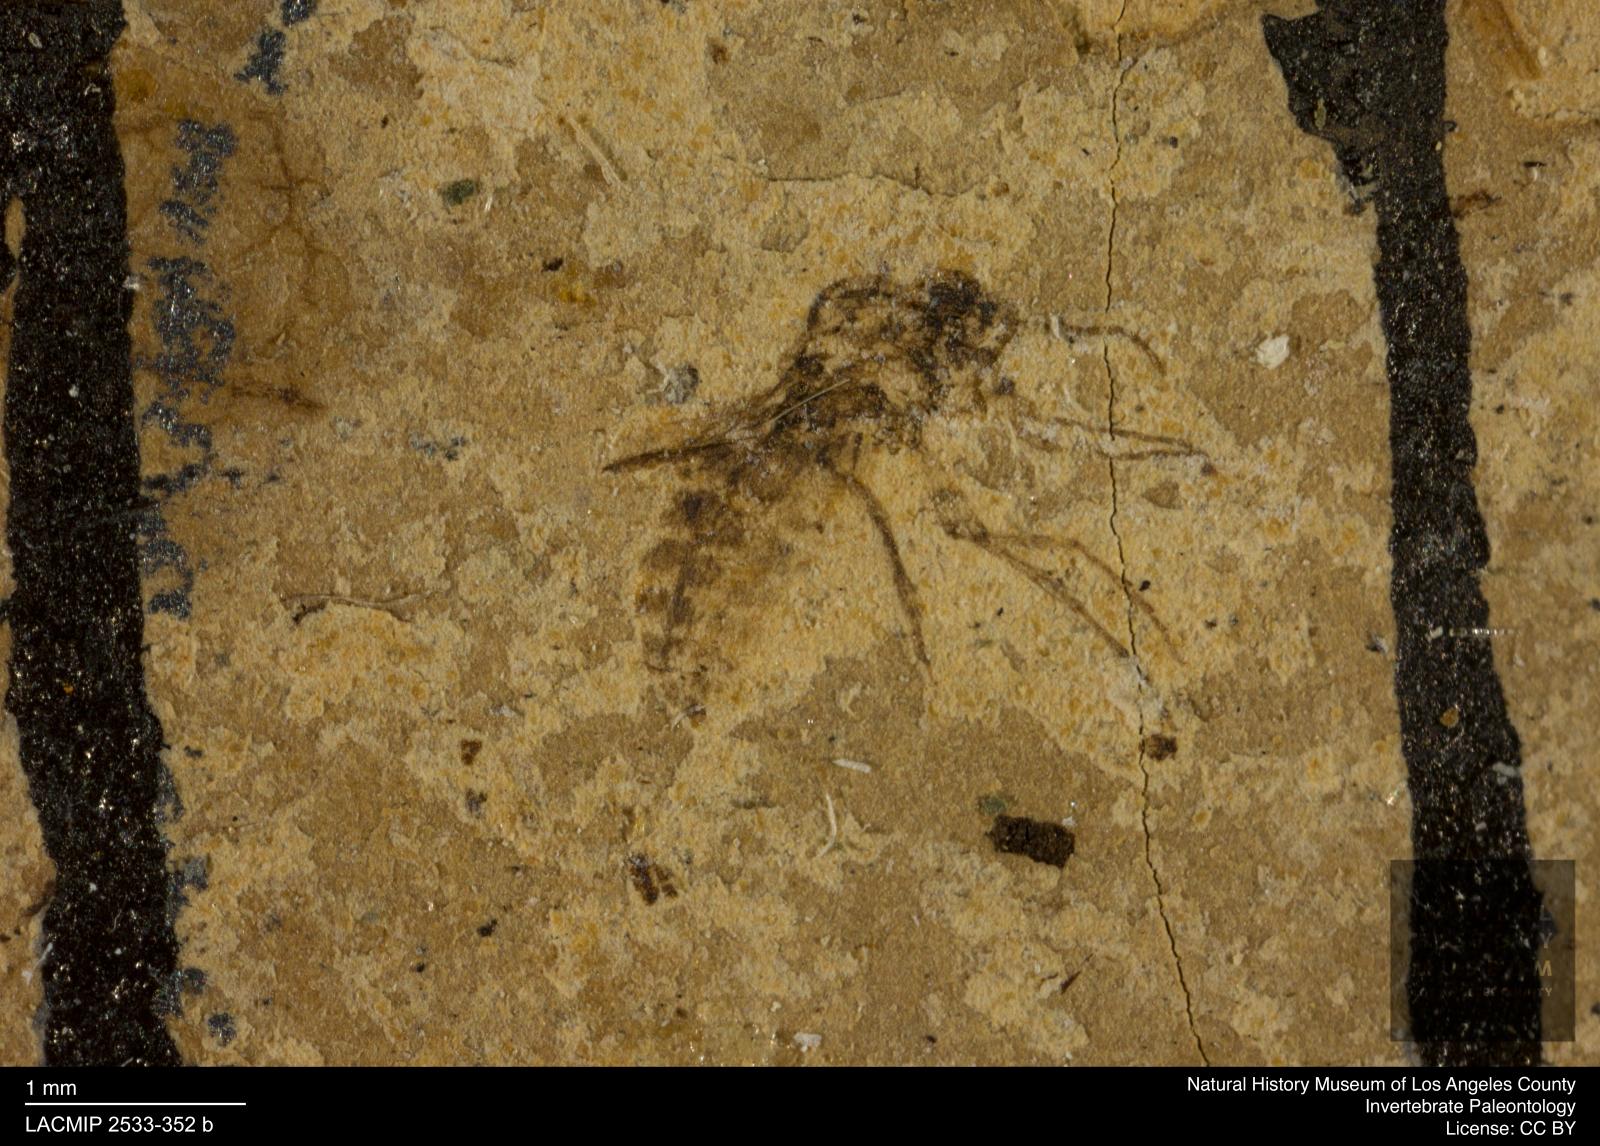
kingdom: Animalia
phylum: Arthropoda
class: Insecta
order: Diptera
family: Ceratopogonidae
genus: Culicoides
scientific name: Culicoides austerus
